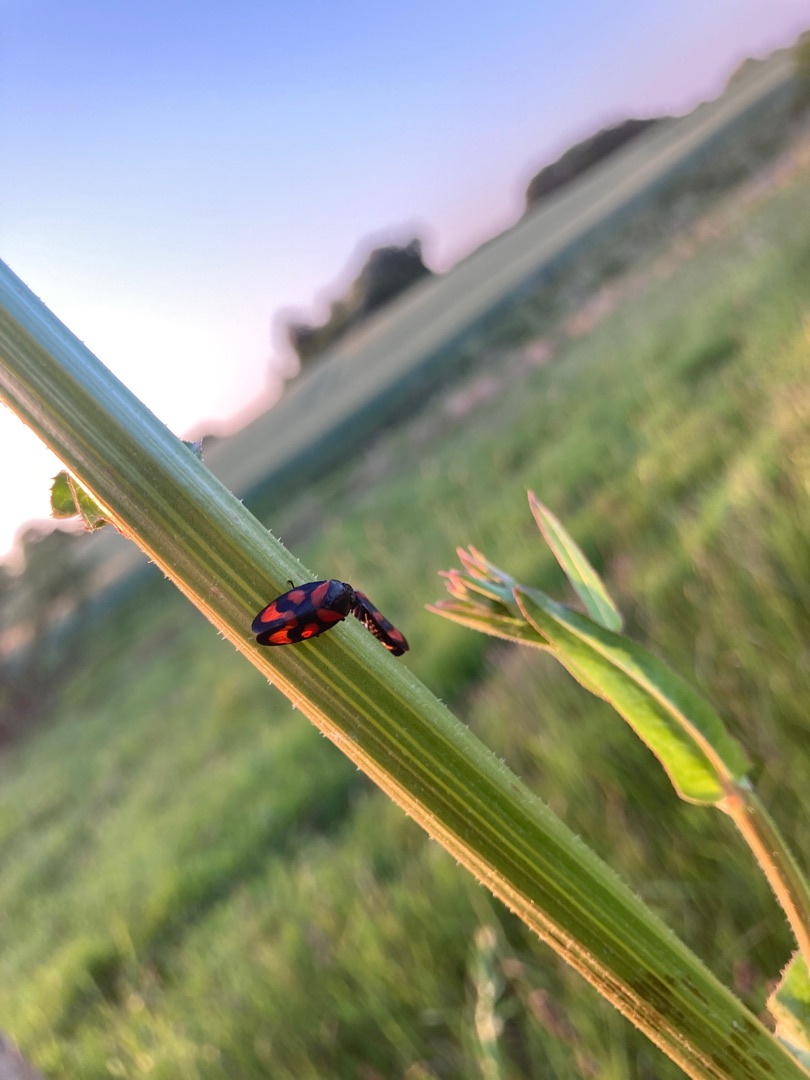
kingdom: Animalia
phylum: Arthropoda
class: Insecta
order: Hemiptera
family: Cercopidae
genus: Cercopis
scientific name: Cercopis vulnerata
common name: Blodcikade
